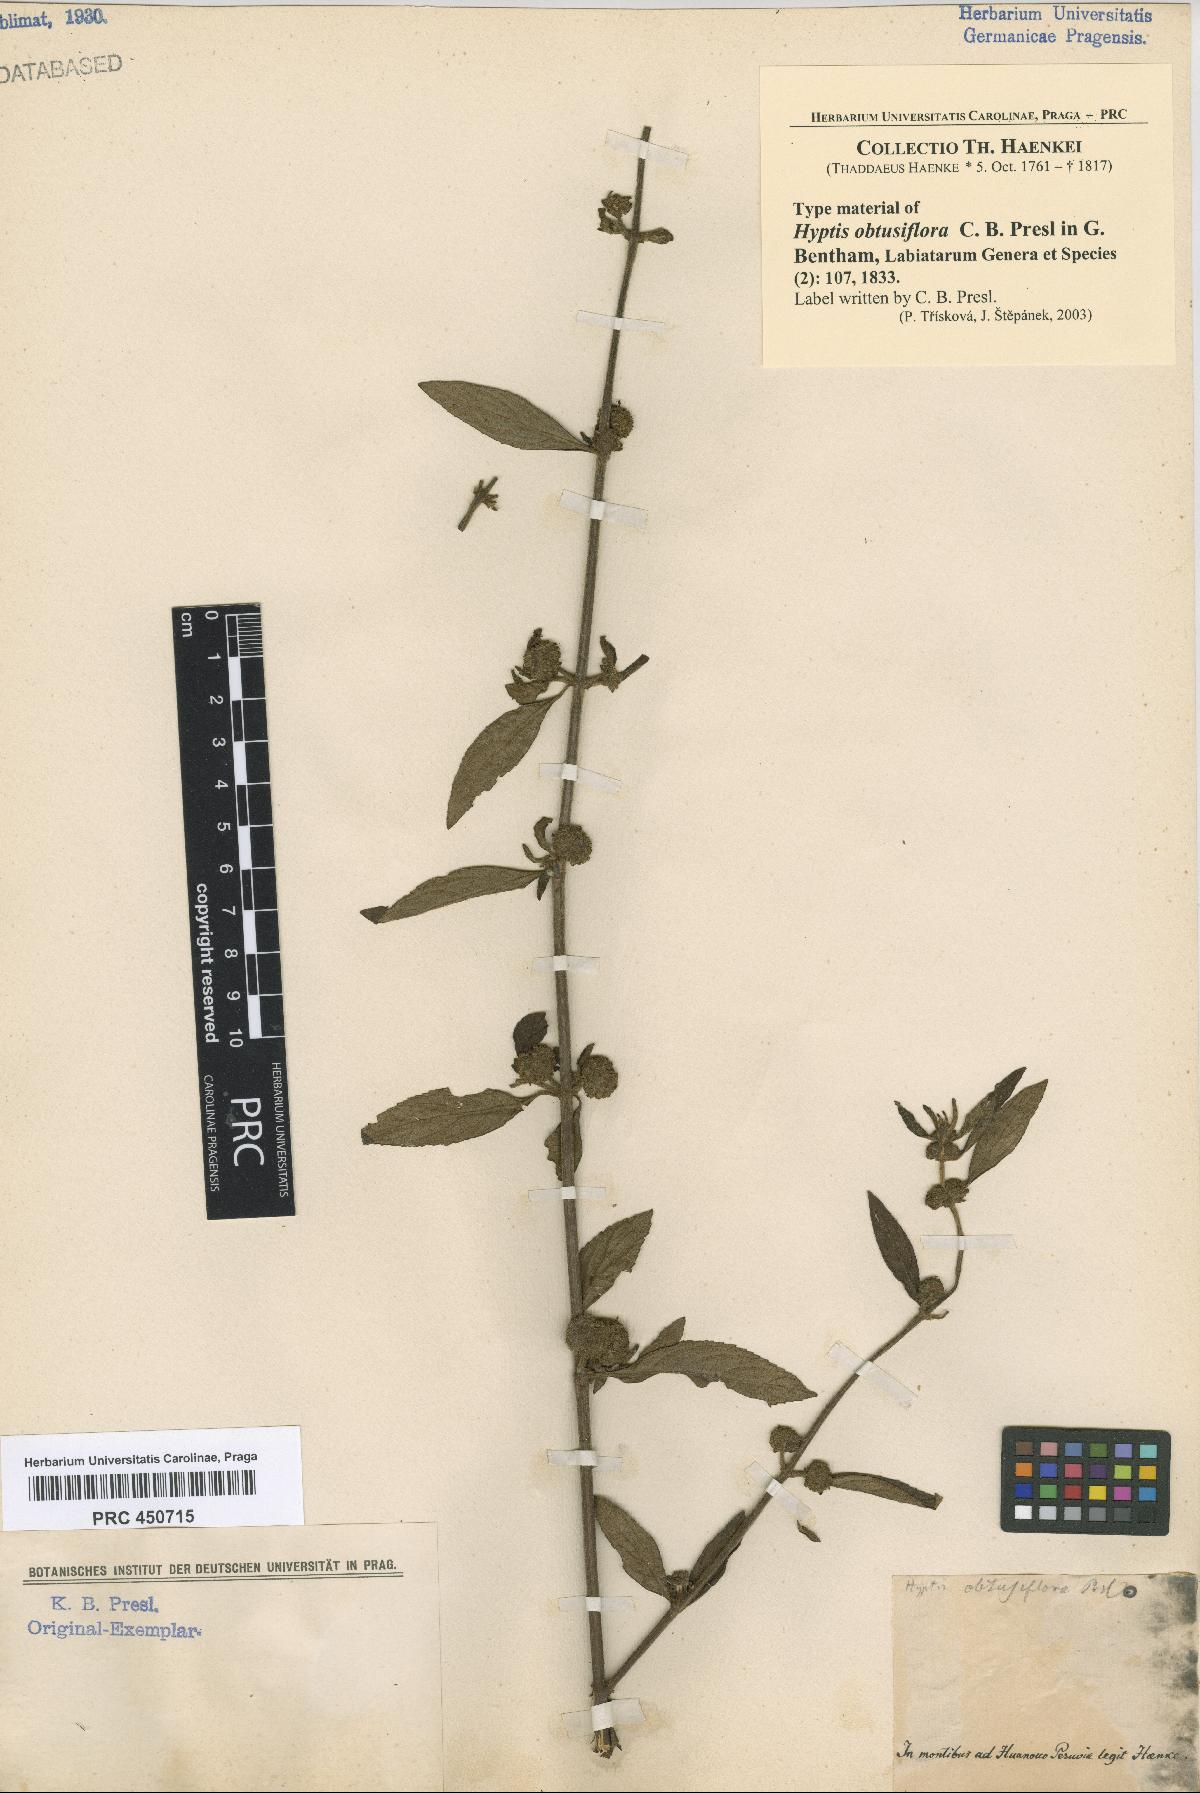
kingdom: Plantae
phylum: Tracheophyta
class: Magnoliopsida
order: Lamiales
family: Lamiaceae
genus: Hyptis
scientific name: Hyptis obtusiflora
